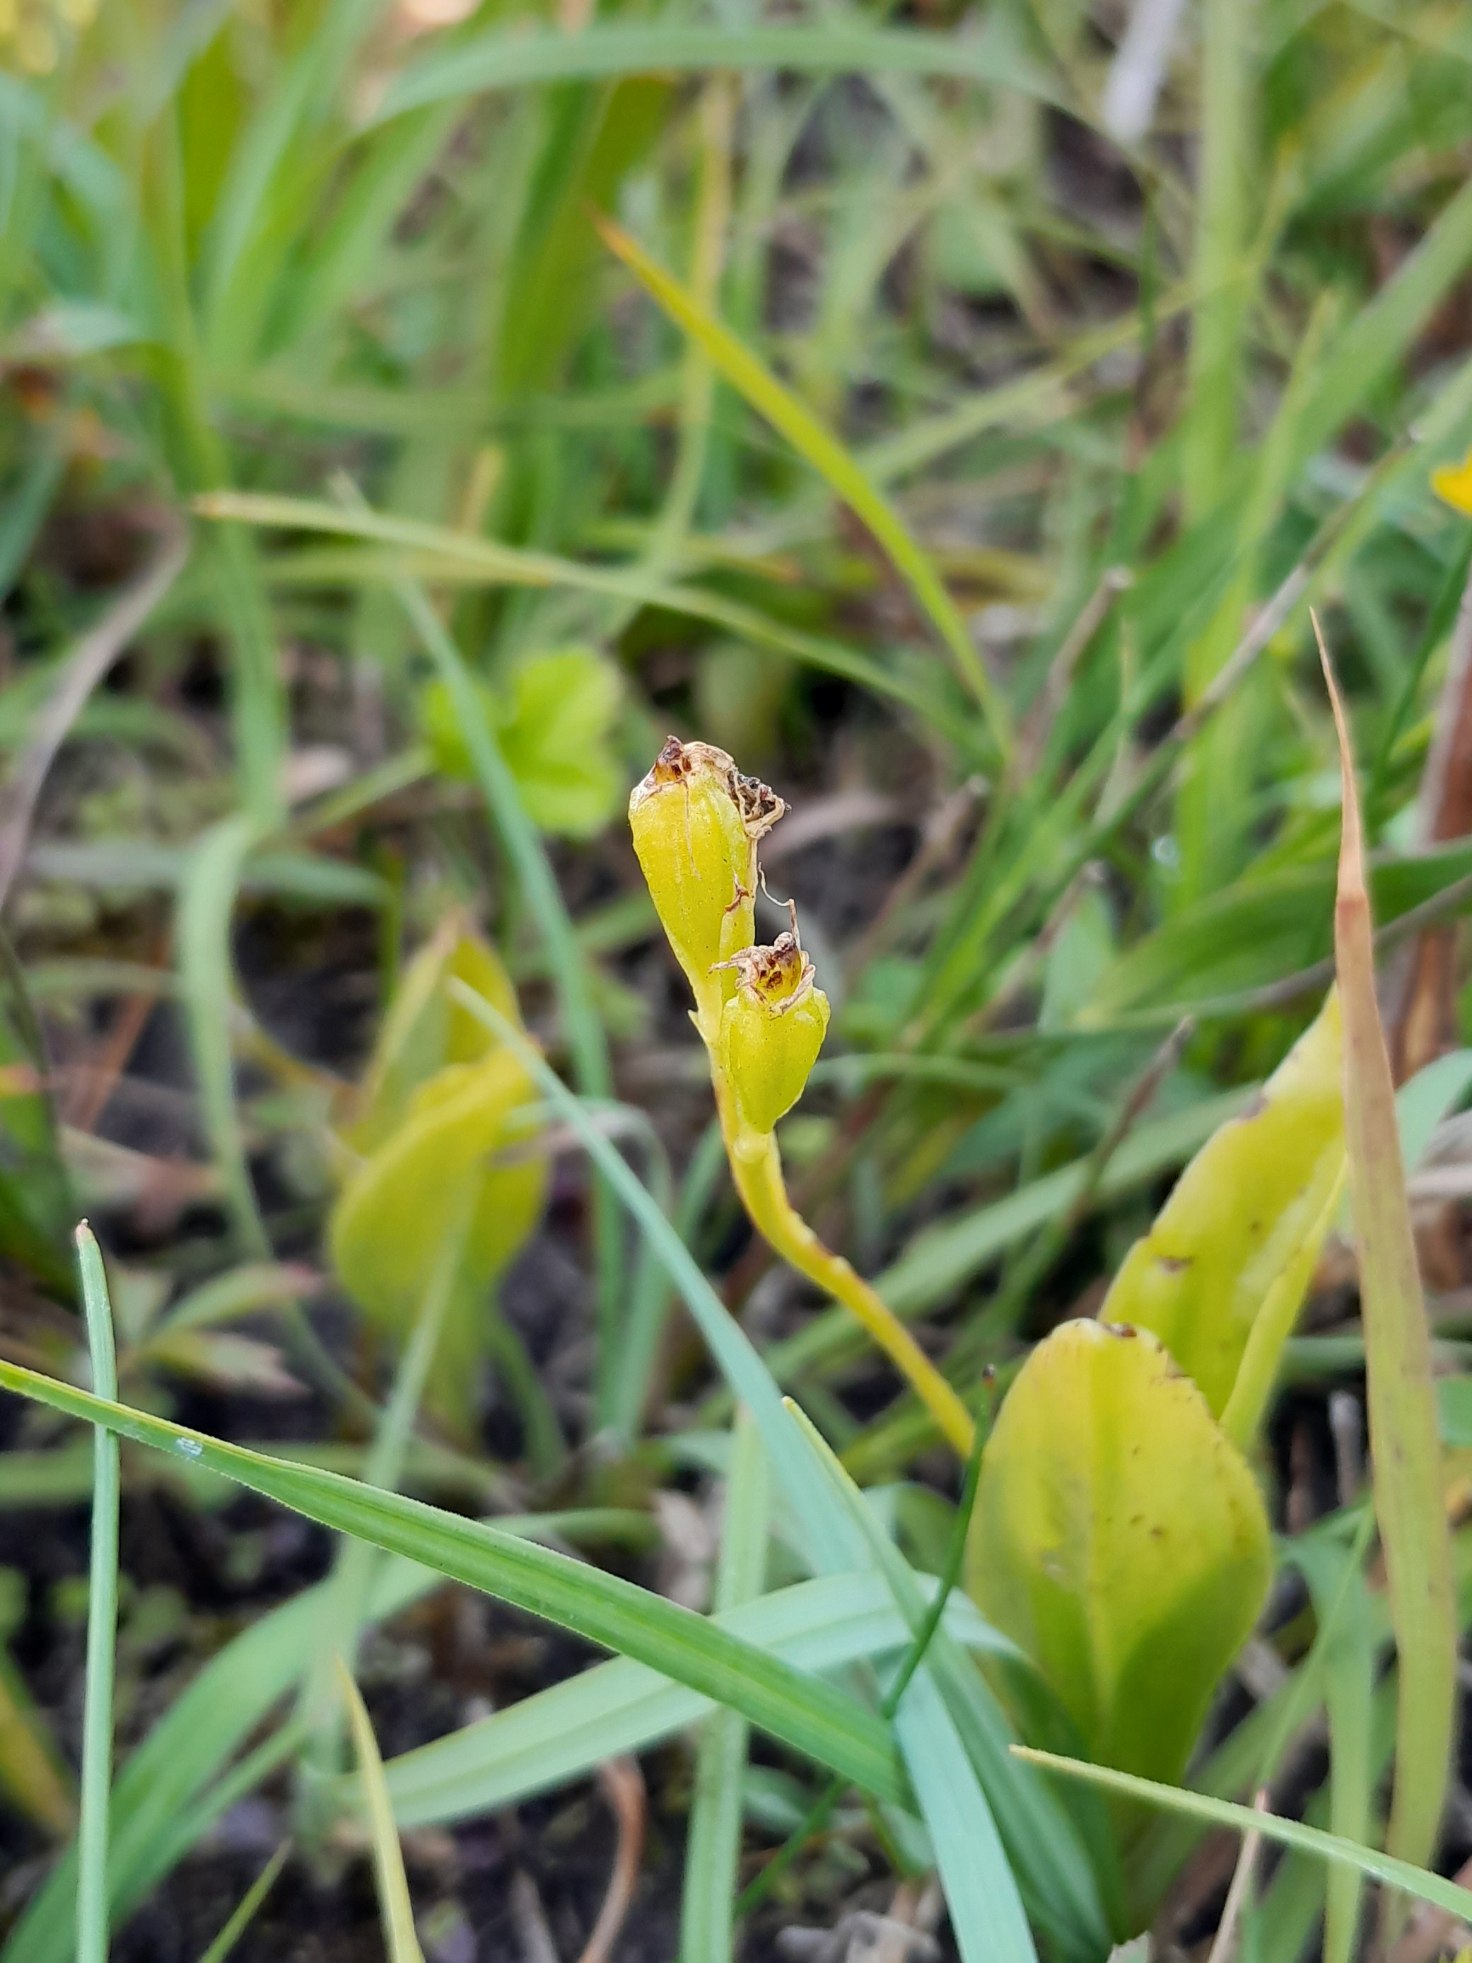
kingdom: Animalia
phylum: Arthropoda
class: Insecta
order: Coleoptera
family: Curculionidae
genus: Liparis
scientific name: Liparis loeselii
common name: Mygblomst
